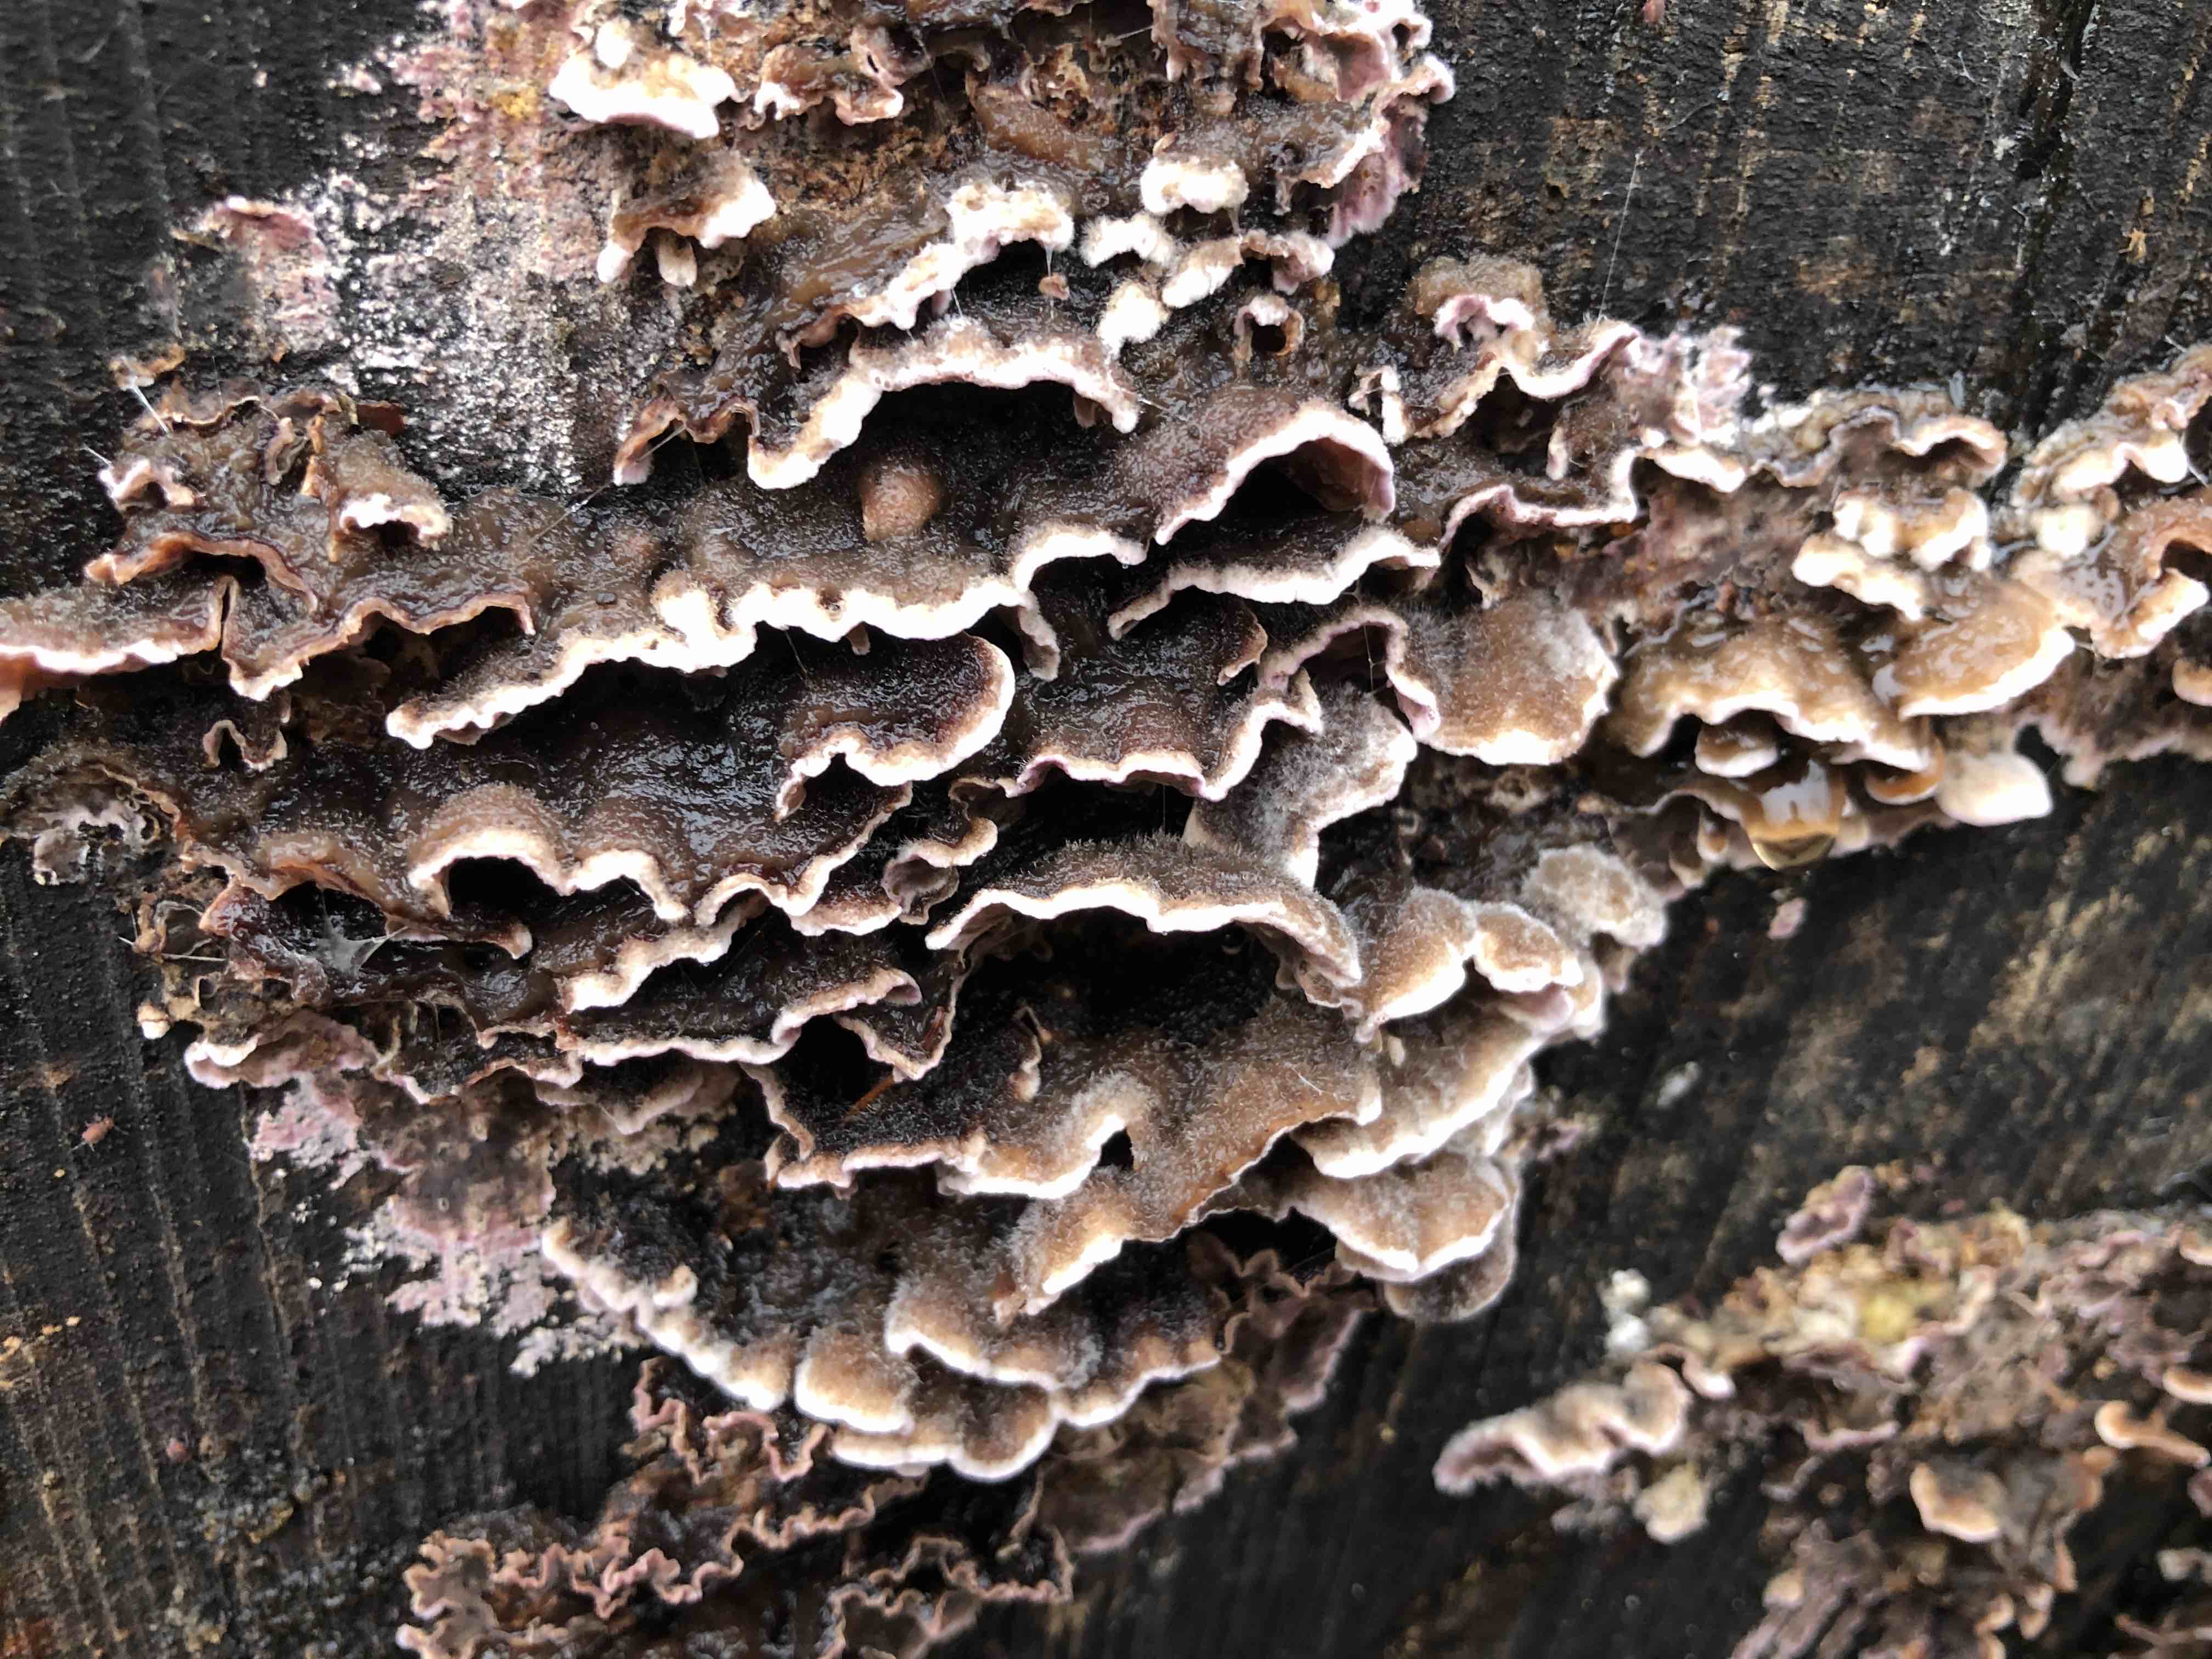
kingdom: Fungi
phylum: Basidiomycota
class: Agaricomycetes
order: Agaricales
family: Cyphellaceae
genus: Chondrostereum
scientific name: Chondrostereum purpureum
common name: purpurlædersvamp
